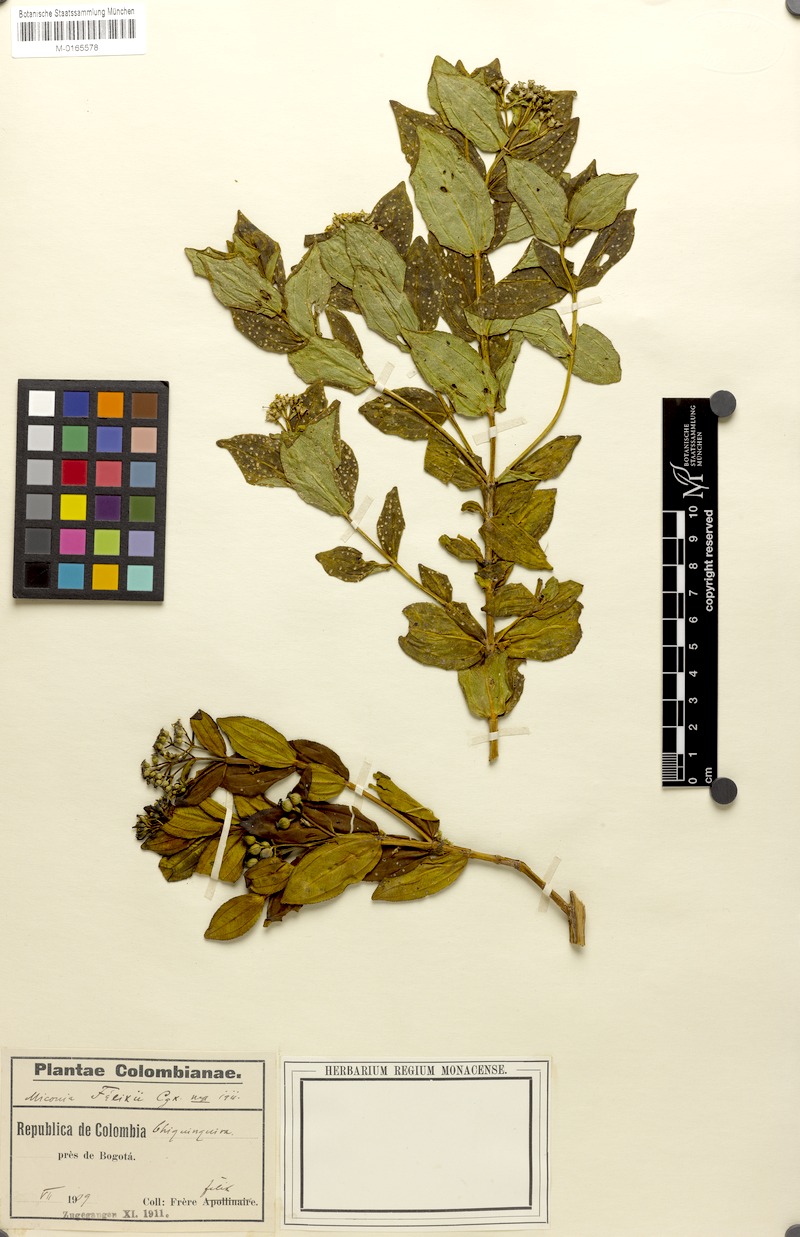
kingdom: Plantae
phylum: Tracheophyta
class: Magnoliopsida
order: Myrtales
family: Melastomataceae
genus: Miconia
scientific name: Miconia felixii
